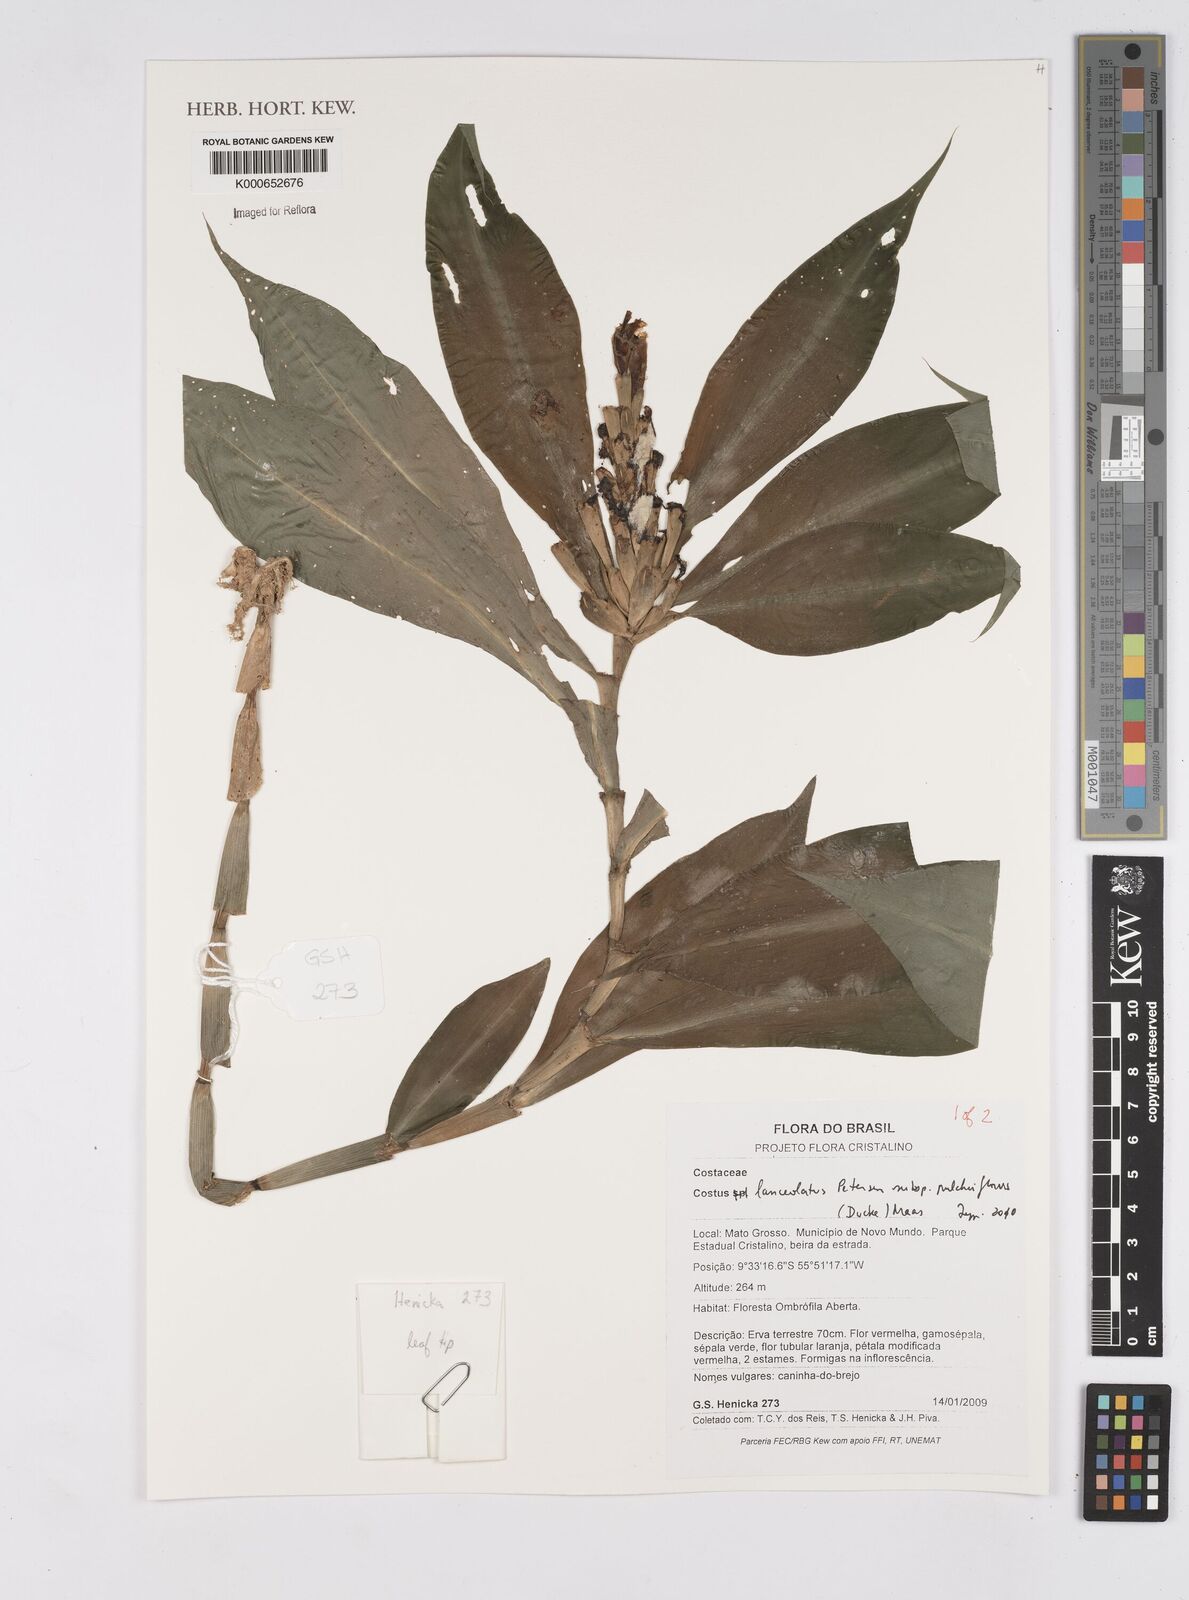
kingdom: Plantae
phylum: Tracheophyta
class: Liliopsida
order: Zingiberales
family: Costaceae
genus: Chamaecostus
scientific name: Chamaecostus lanceolatus
